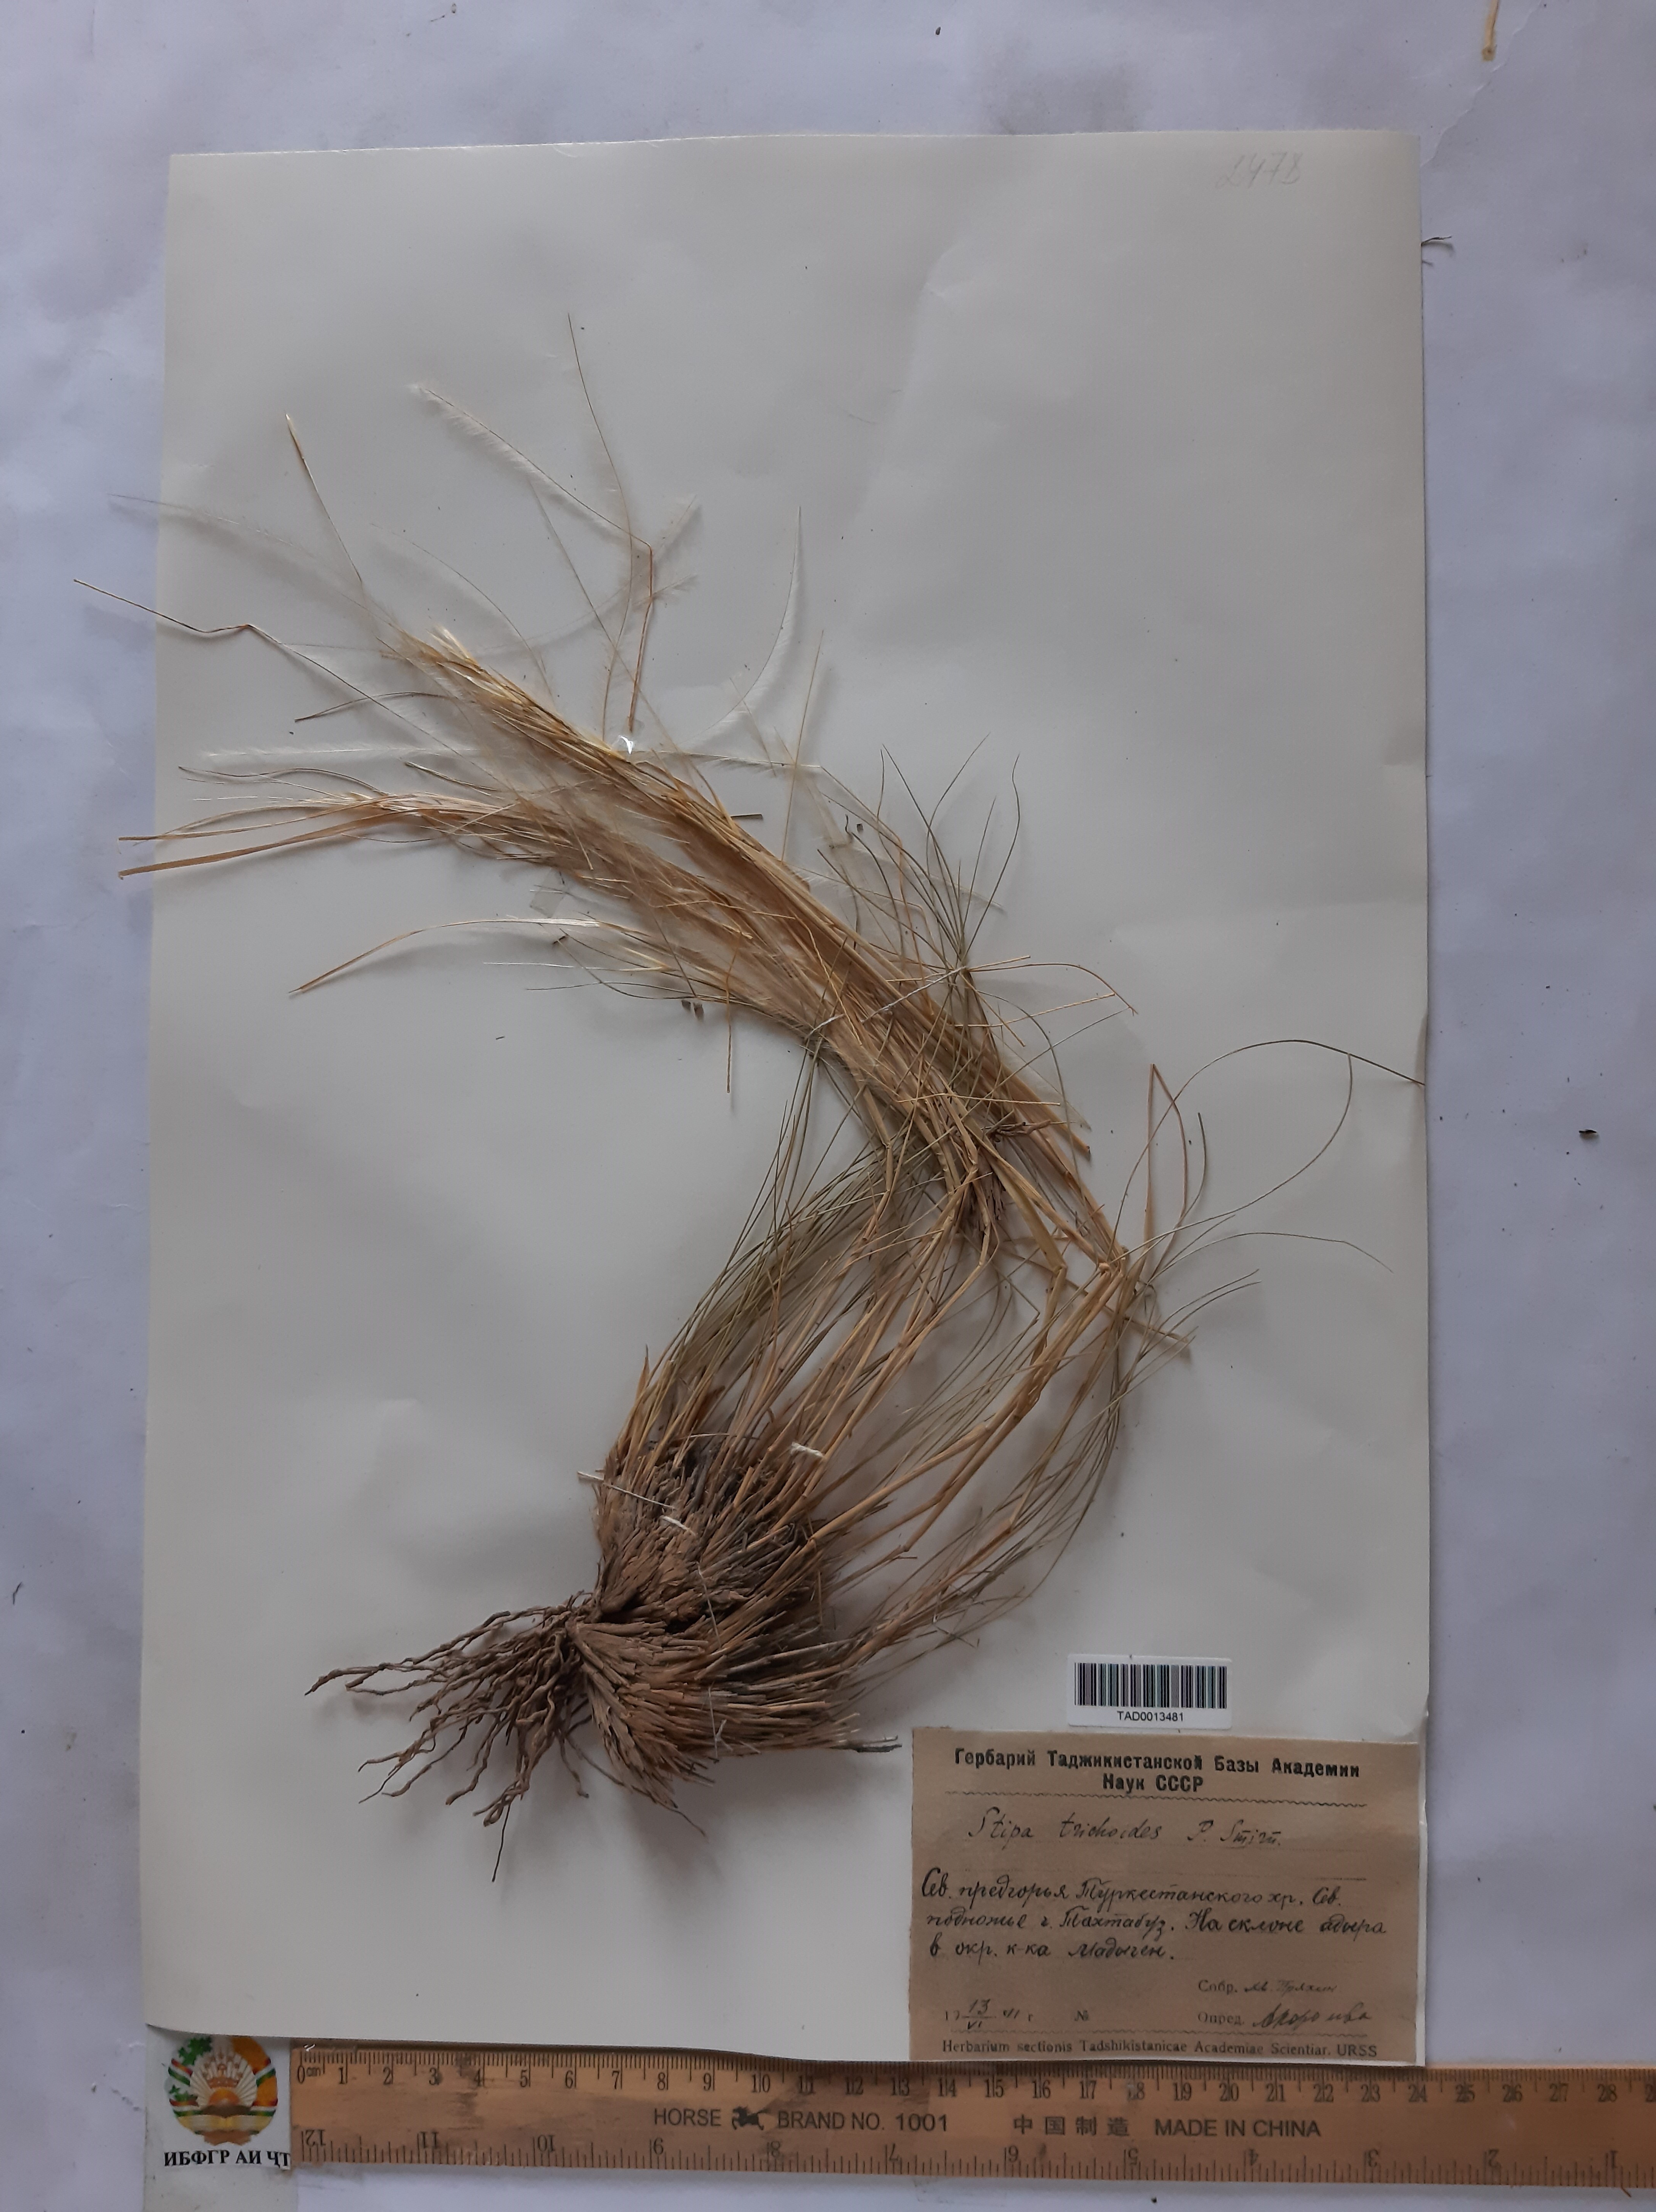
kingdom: Plantae
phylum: Tracheophyta
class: Liliopsida
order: Poales
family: Poaceae
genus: Stipa
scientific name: Stipa trichoides
